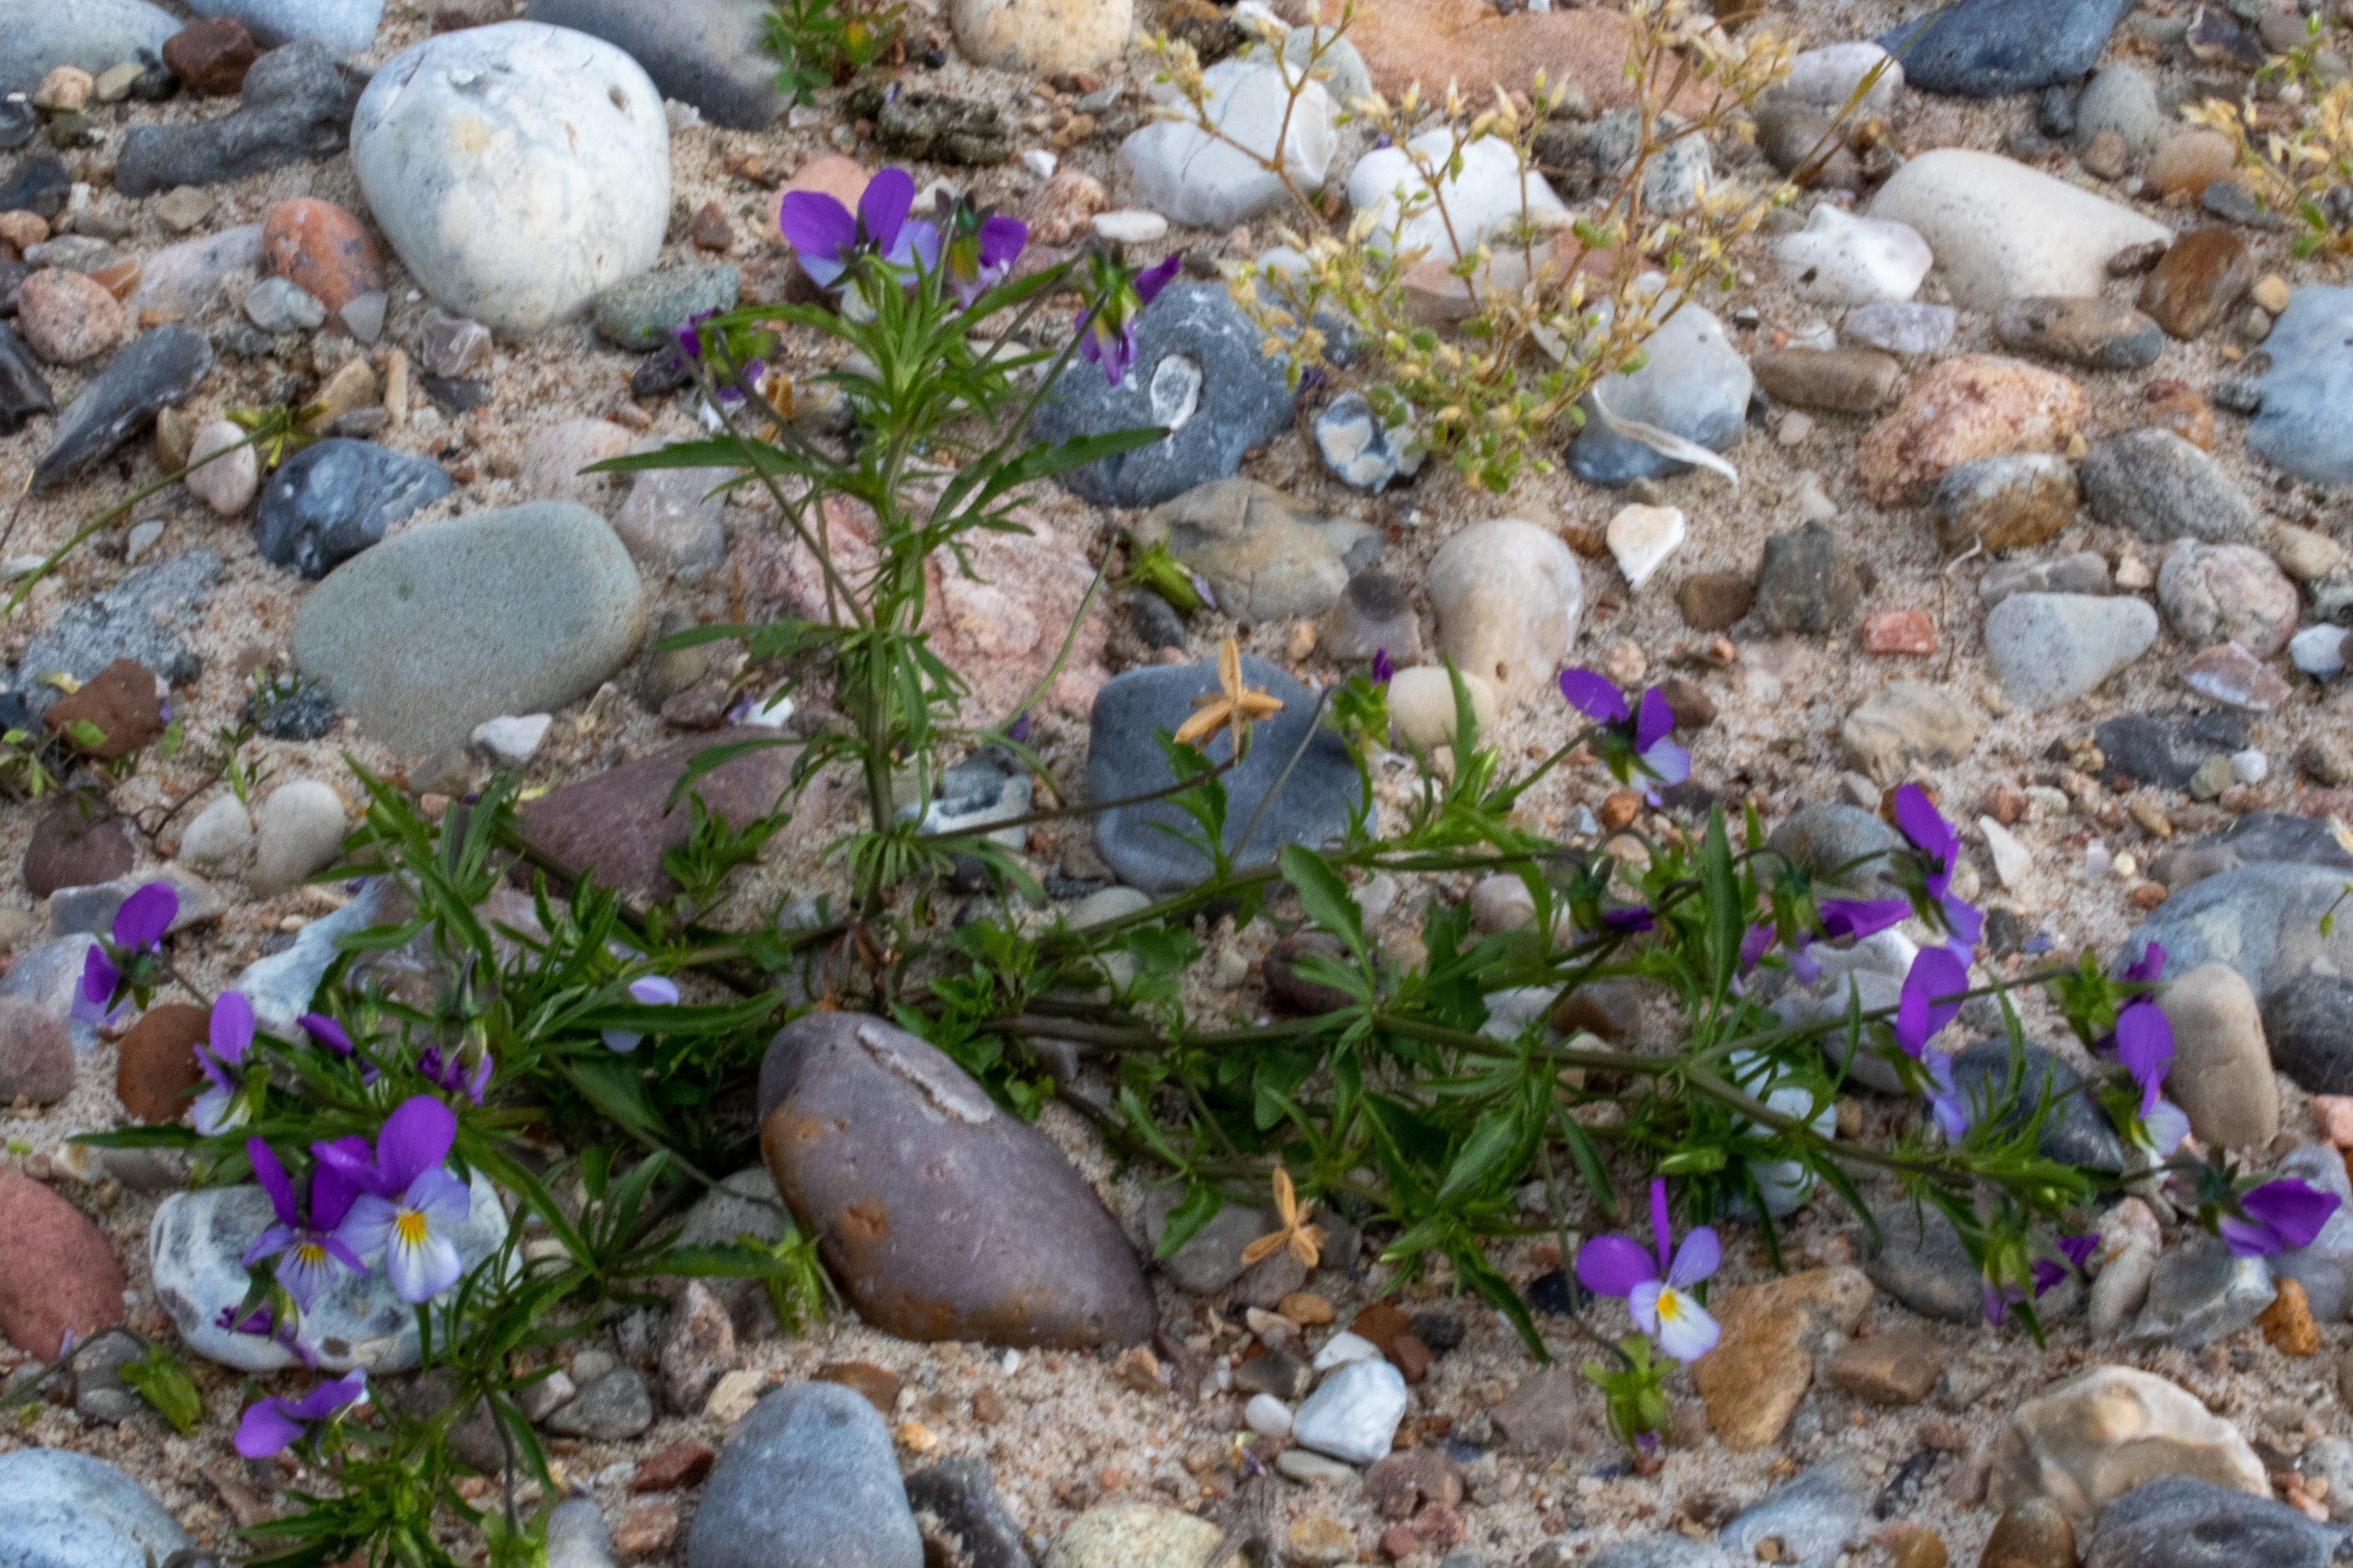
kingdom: Plantae
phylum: Tracheophyta
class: Magnoliopsida
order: Malpighiales
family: Violaceae
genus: Viola
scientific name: Viola tricolor
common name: Almindelig stedmoderblomst
